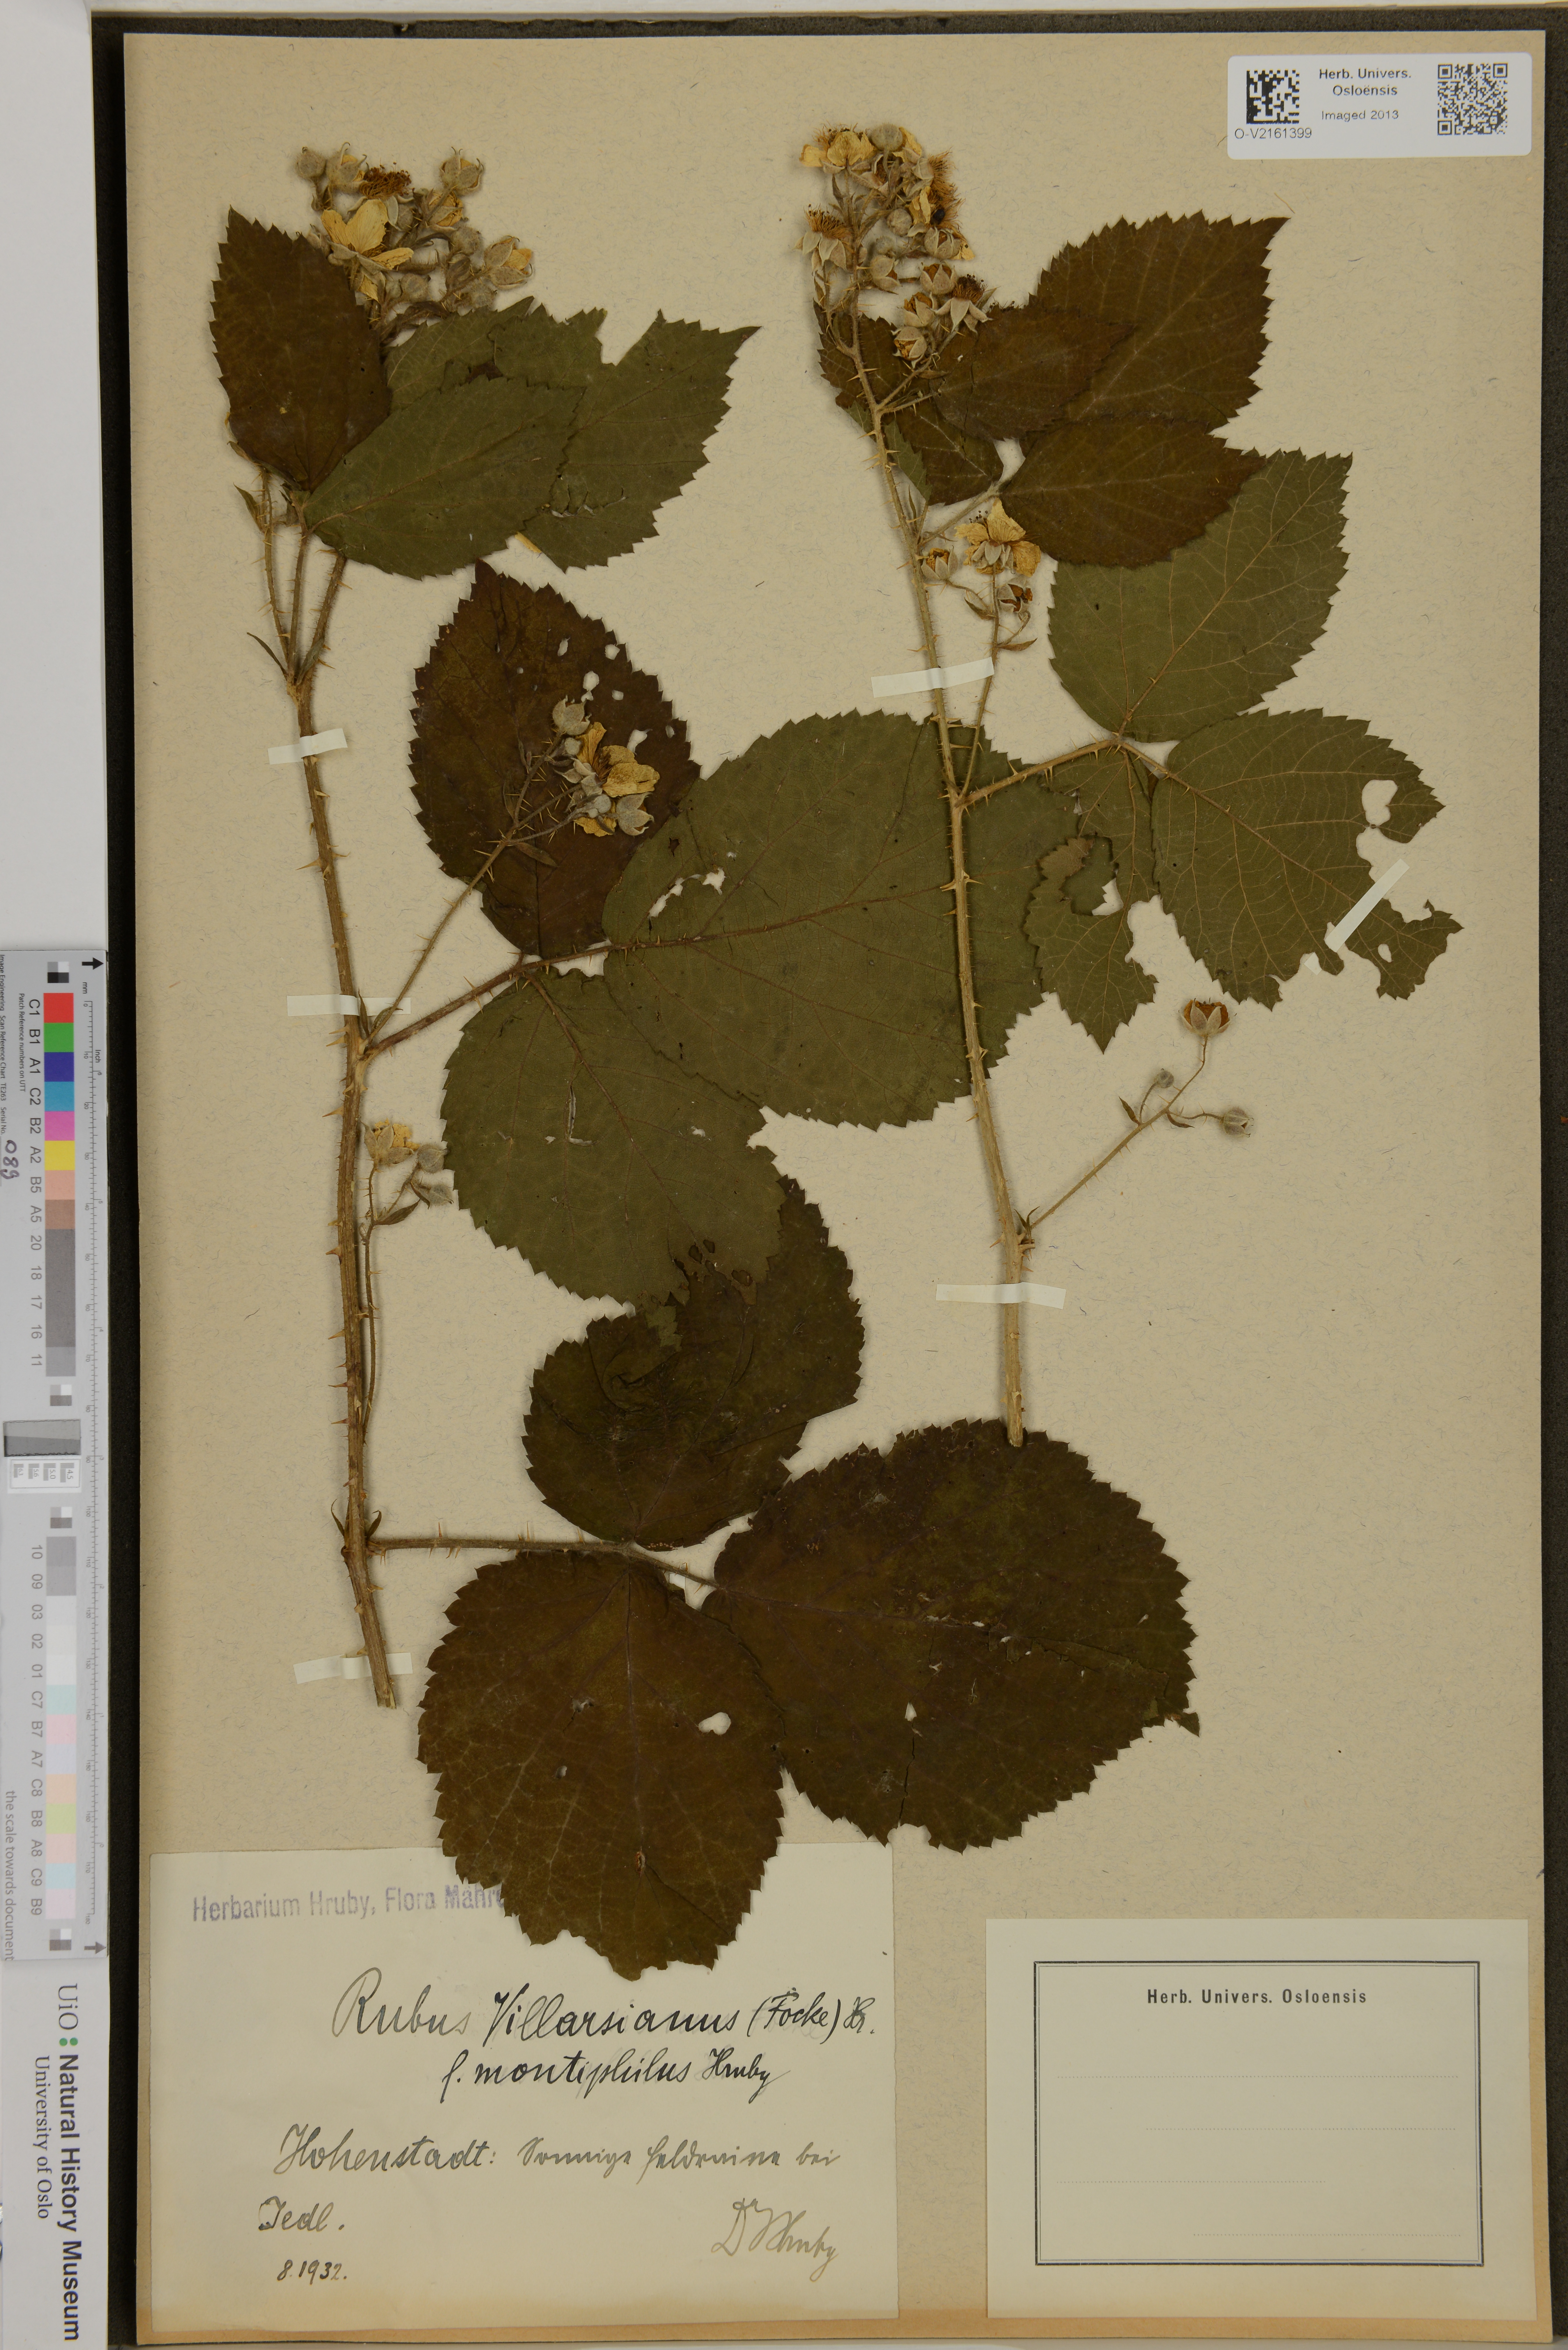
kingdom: Plantae
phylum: Tracheophyta
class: Magnoliopsida
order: Rosales
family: Rosaceae
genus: Rubus
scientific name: Rubus villarsianus
